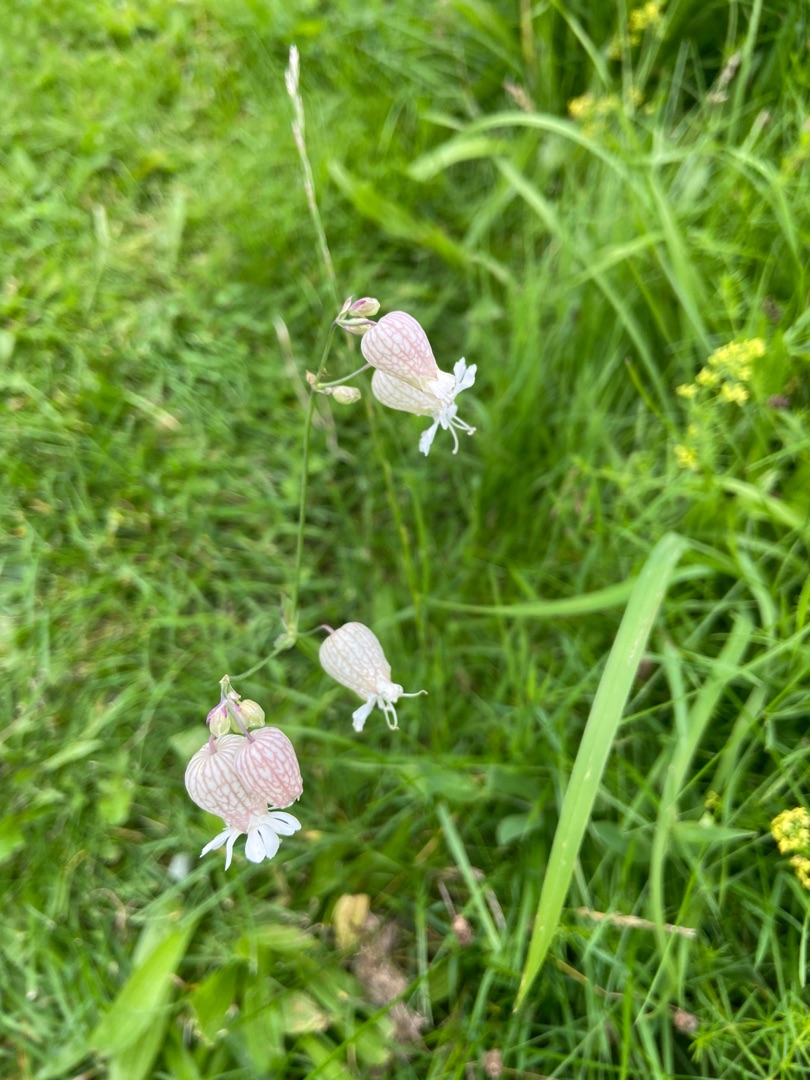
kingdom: Plantae
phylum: Tracheophyta
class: Magnoliopsida
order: Caryophyllales
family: Caryophyllaceae
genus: Silene
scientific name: Silene vulgaris
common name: Blæresmælde
